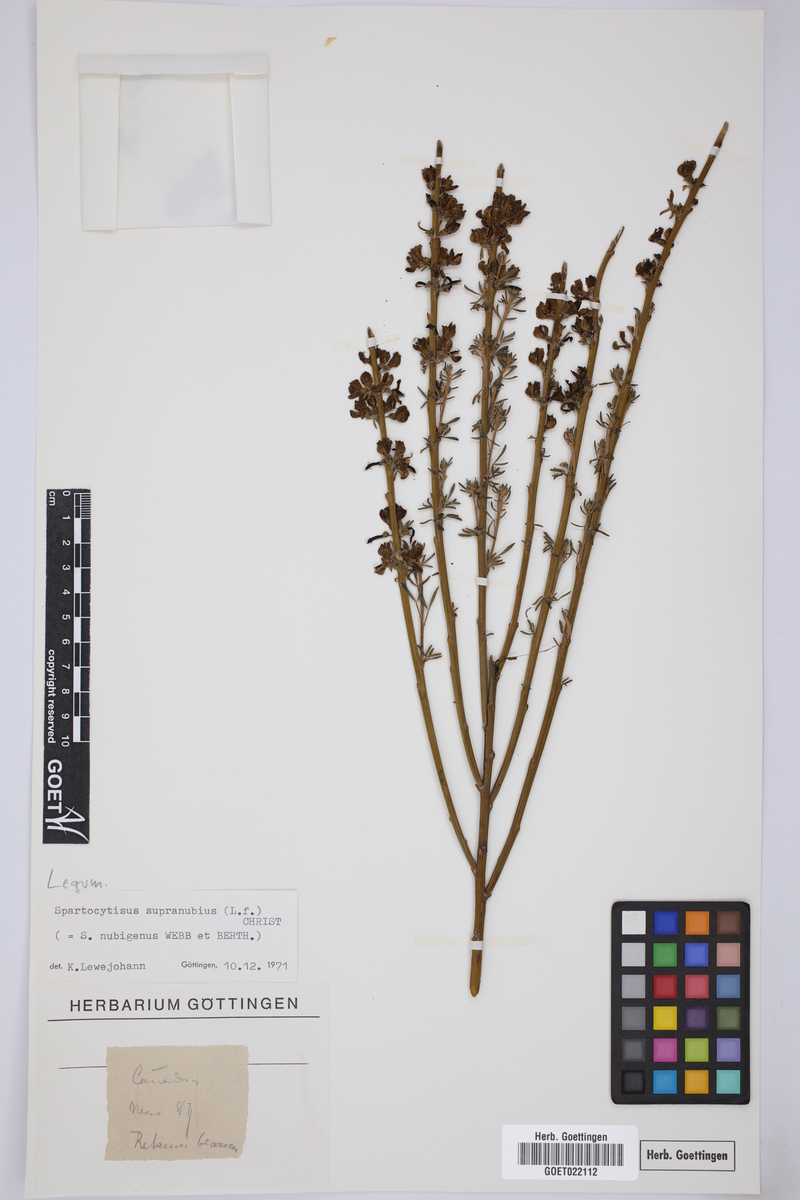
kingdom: Plantae
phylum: Tracheophyta
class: Magnoliopsida
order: Fabales
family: Fabaceae
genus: Cytisus
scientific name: Cytisus supranubius
